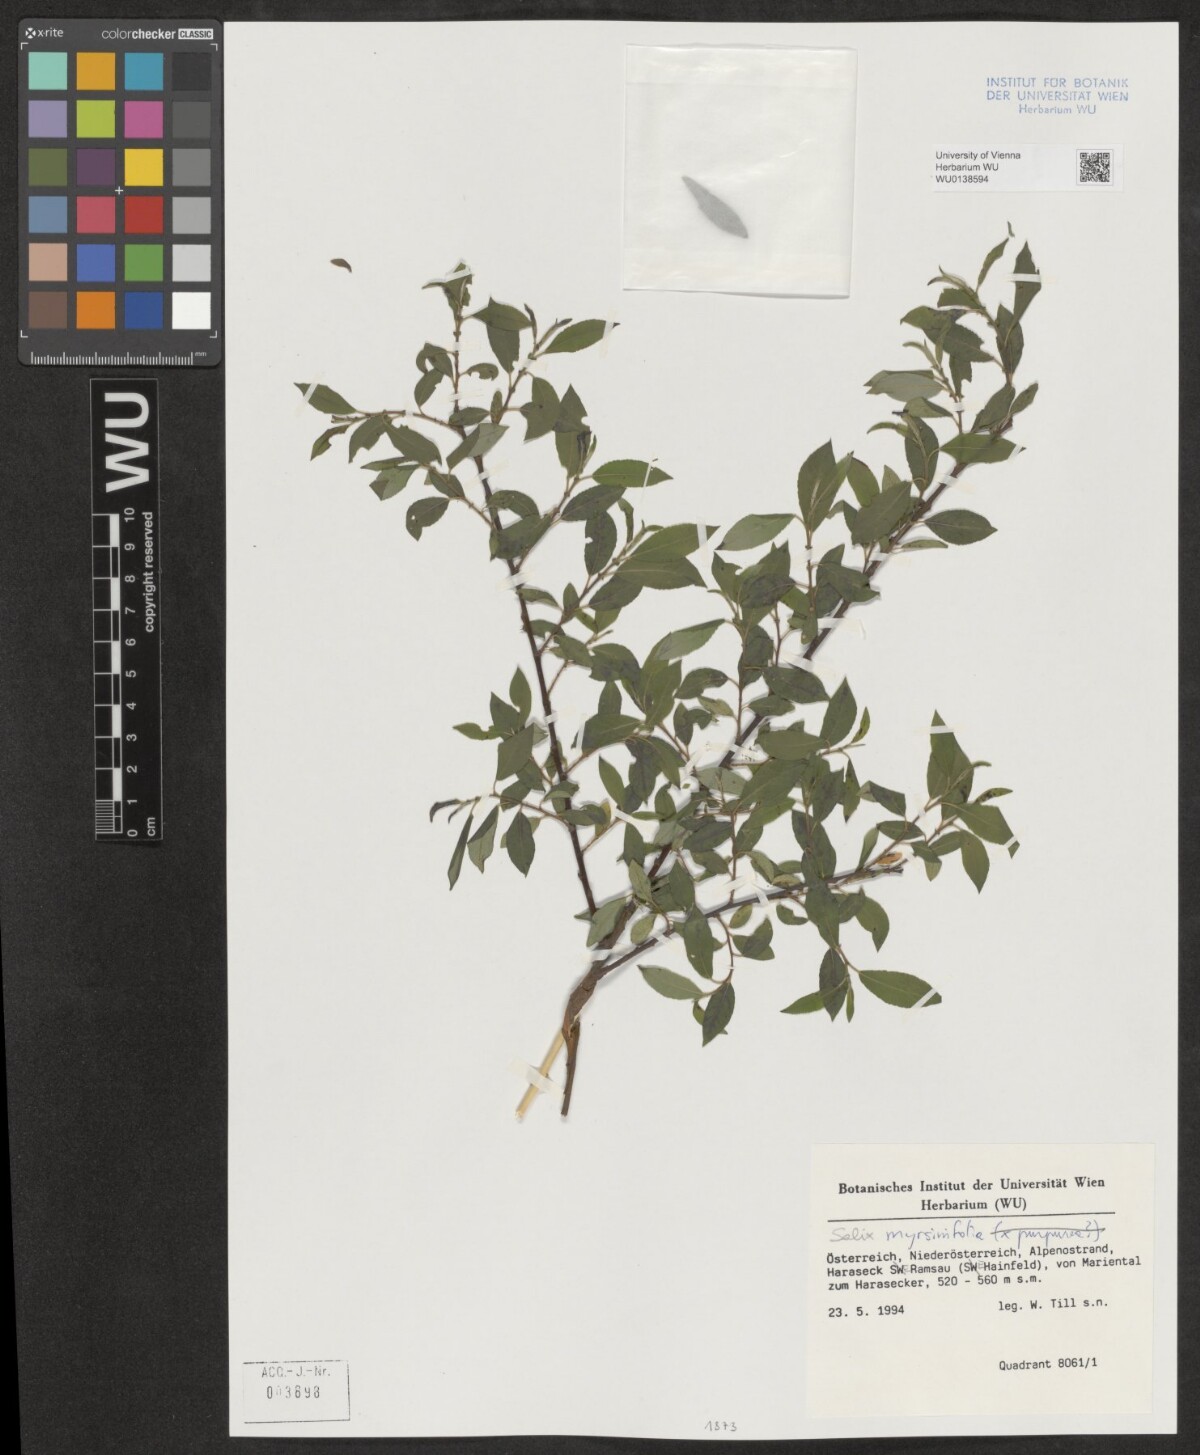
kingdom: Plantae
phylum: Tracheophyta
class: Magnoliopsida
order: Malpighiales
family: Salicaceae
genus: Salix
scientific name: Salix myrsinifolia
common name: Dark-leaved willow
